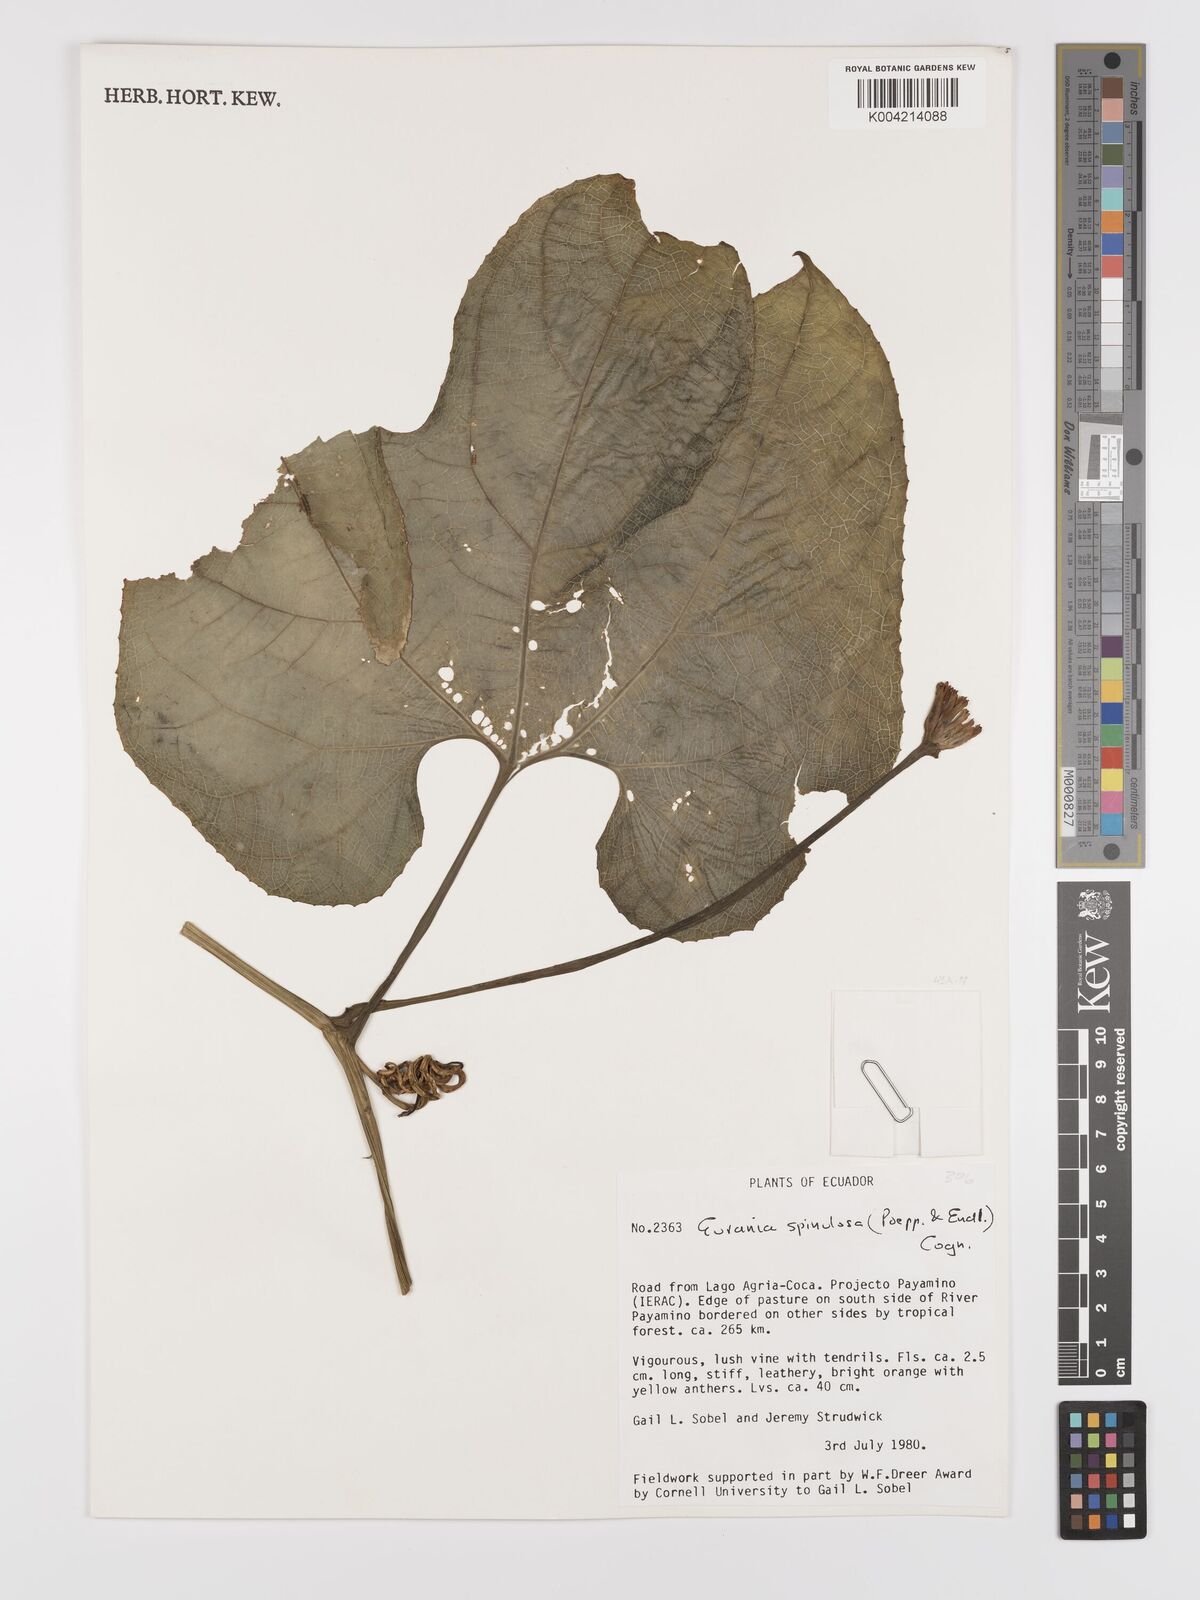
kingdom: Plantae
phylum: Tracheophyta
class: Magnoliopsida
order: Cucurbitales
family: Cucurbitaceae
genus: Gurania
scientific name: Gurania lobata
